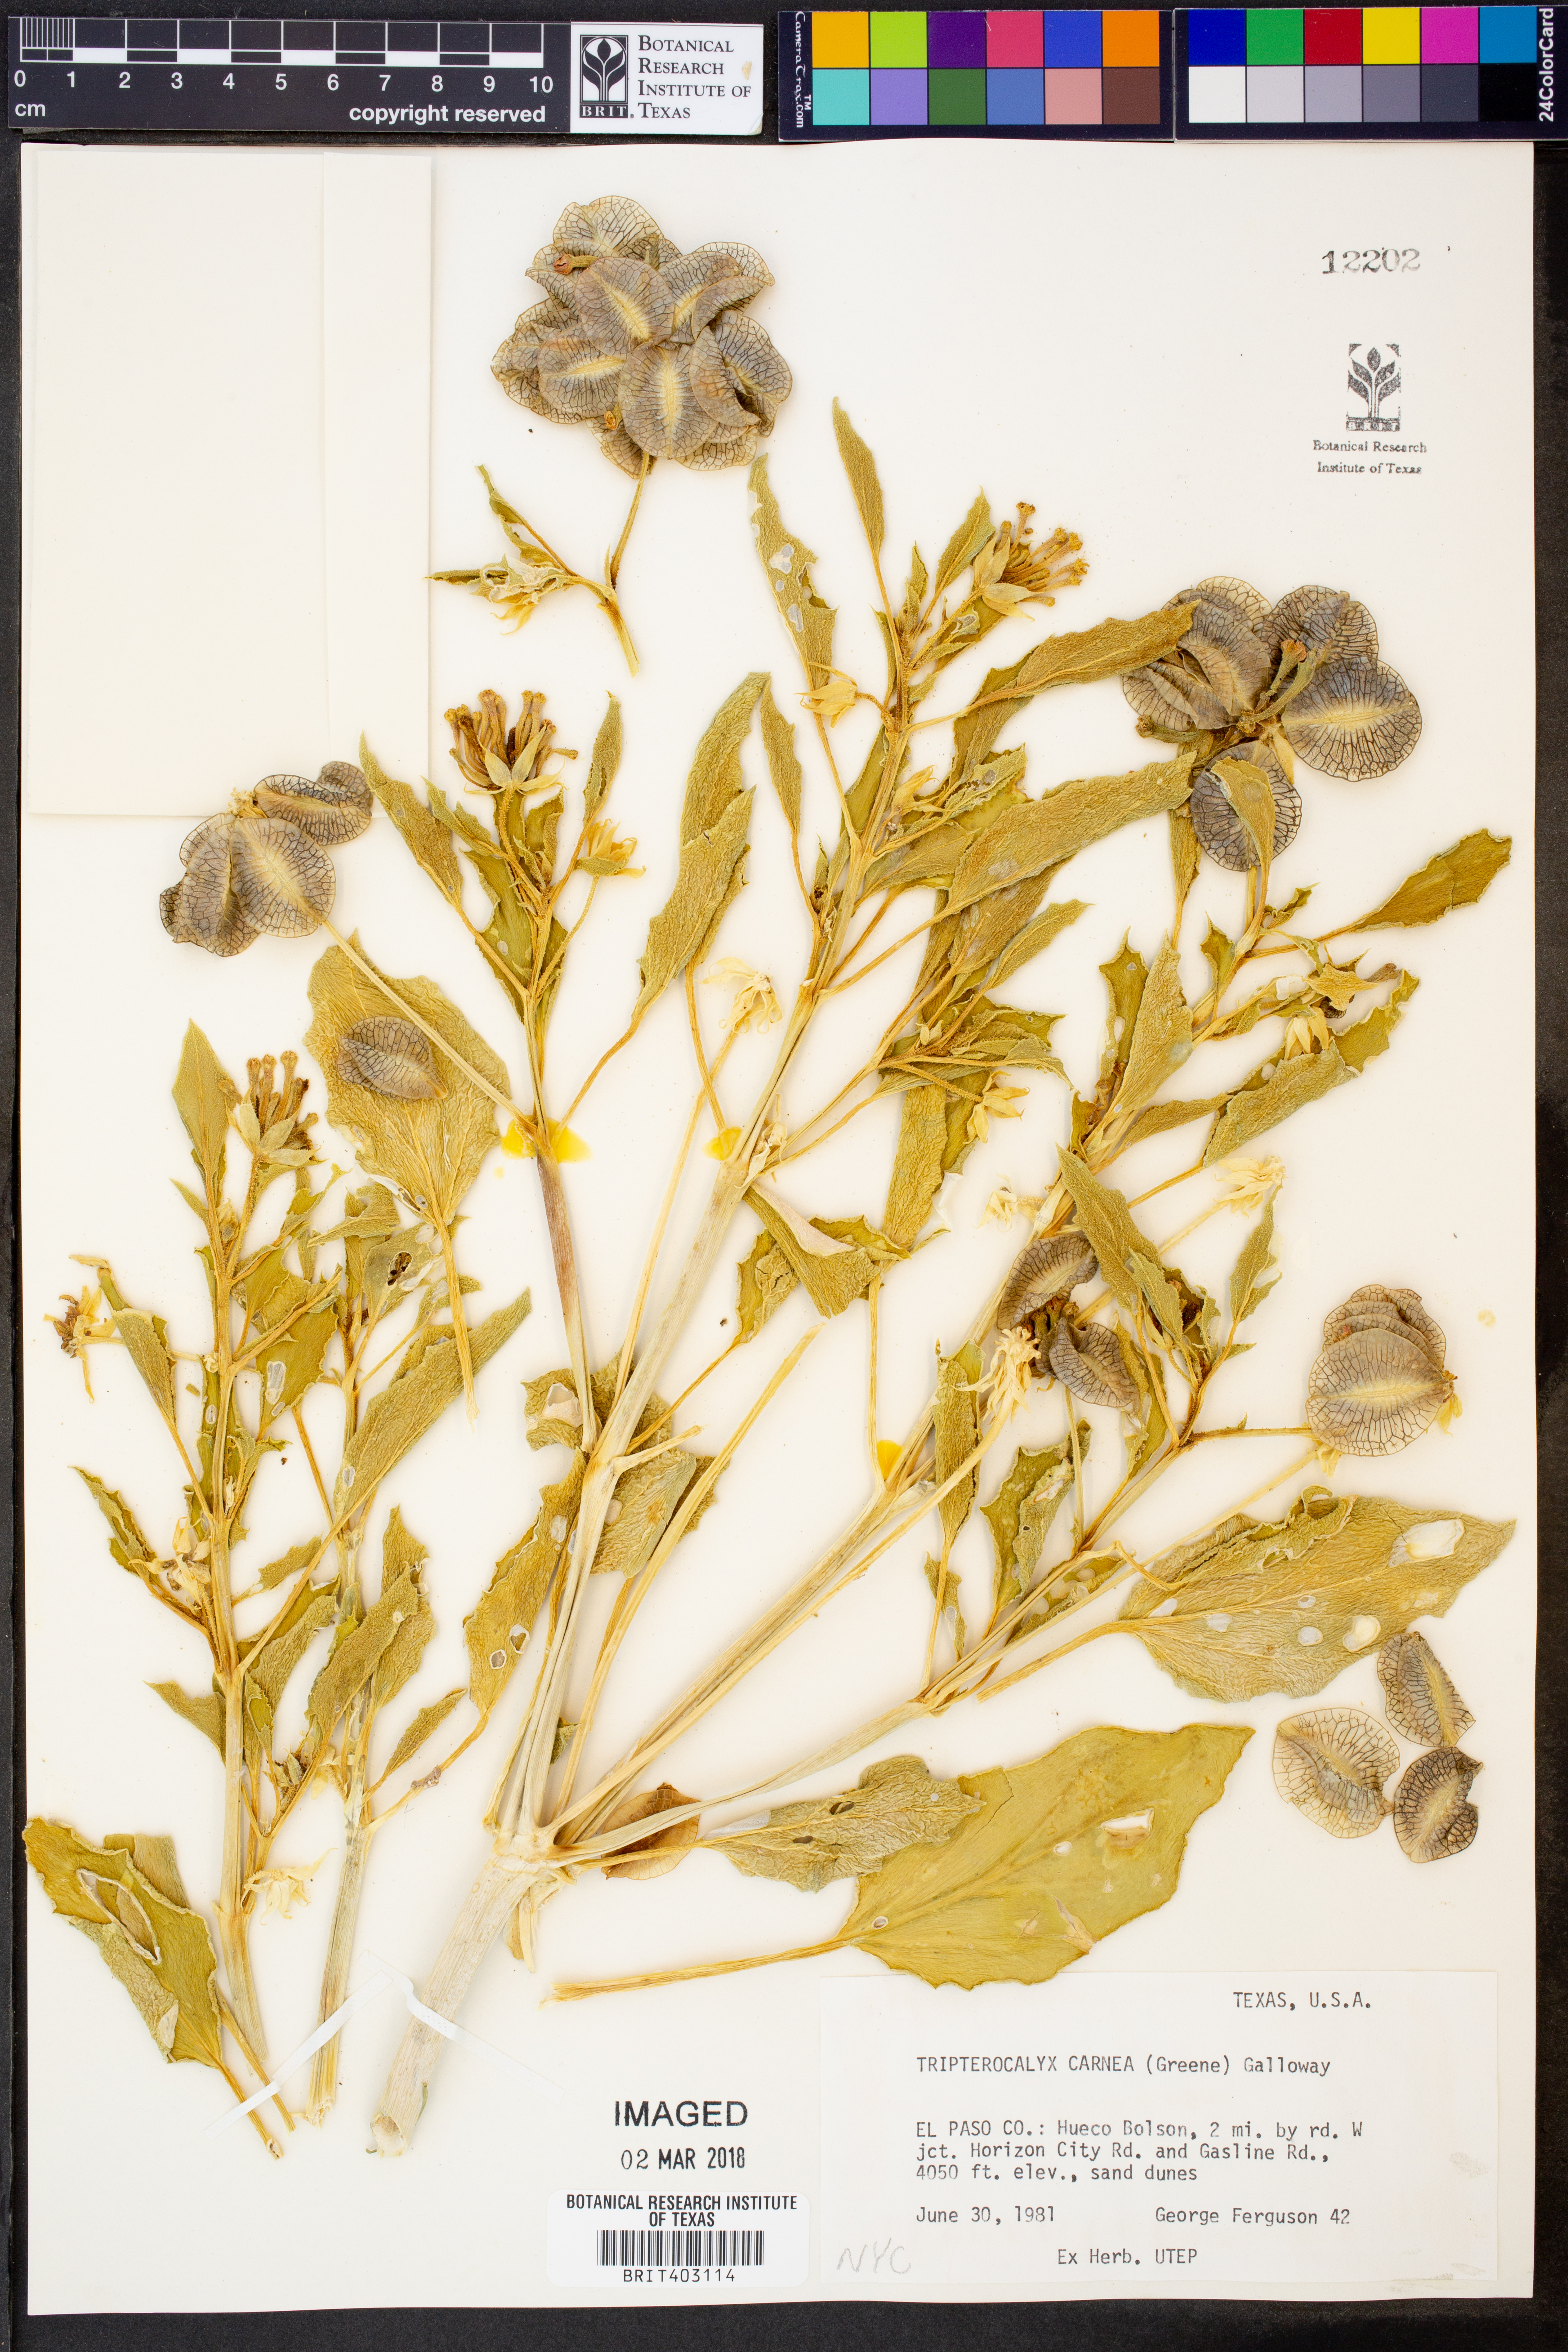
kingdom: Plantae
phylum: Tracheophyta
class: Magnoliopsida
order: Caryophyllales
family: Nyctaginaceae
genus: Tripterocalyx
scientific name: Tripterocalyx carneus
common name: Winged sandpuffs
